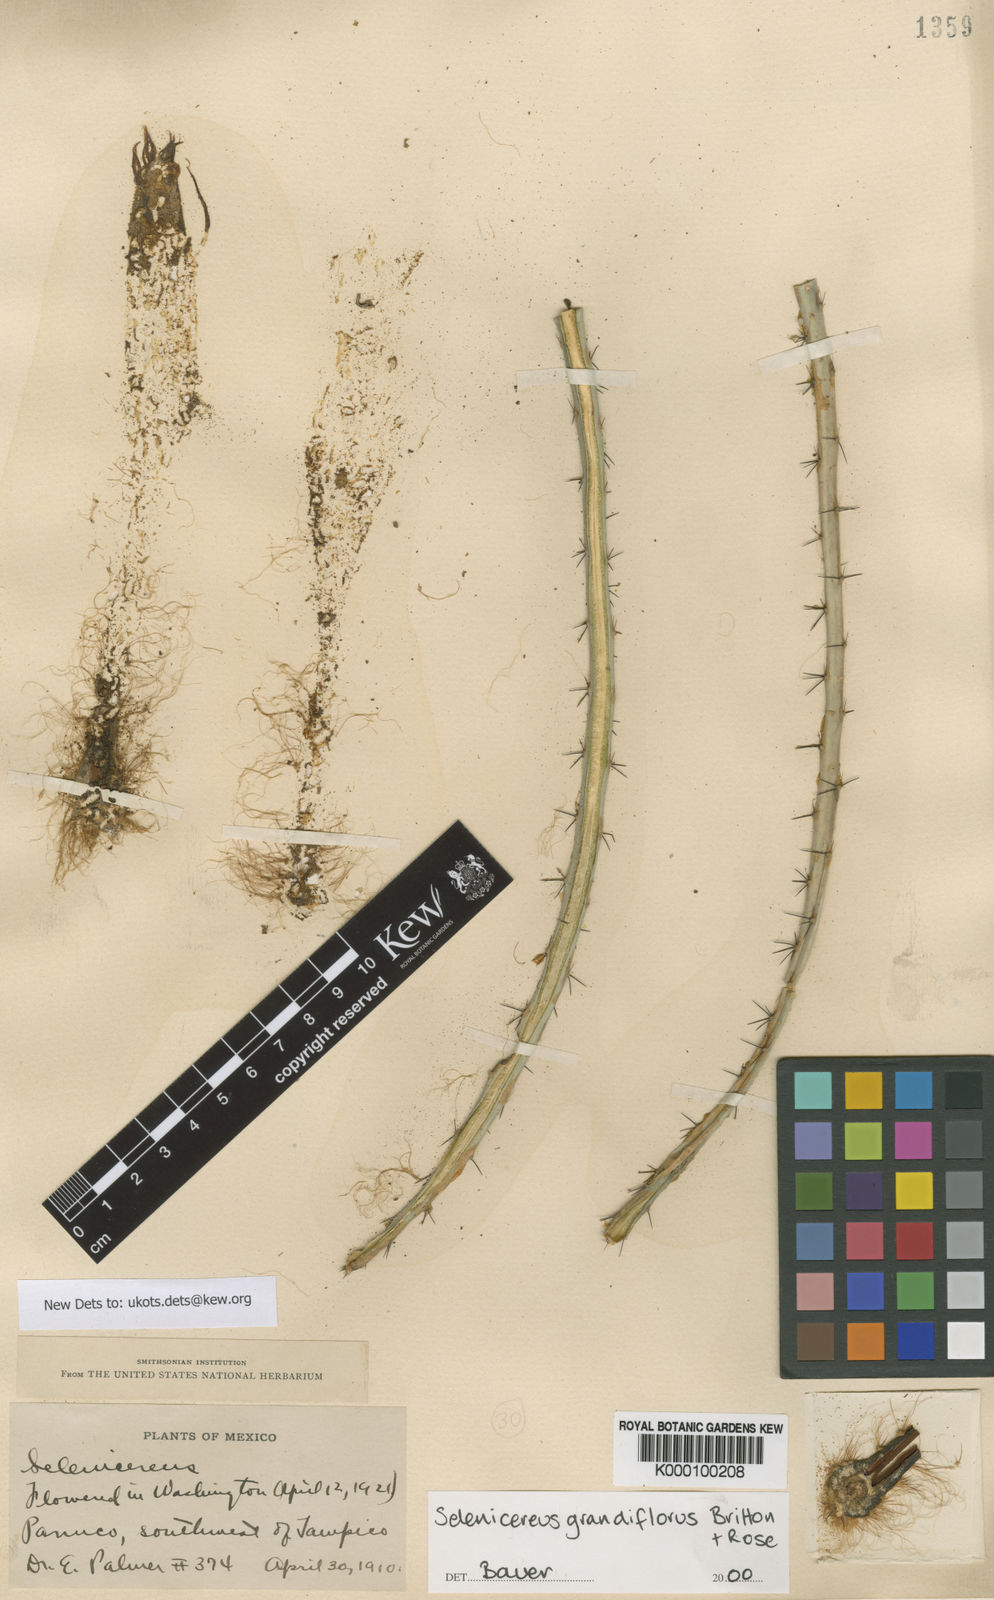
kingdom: Plantae
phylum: Tracheophyta
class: Magnoliopsida
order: Caryophyllales
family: Cactaceae
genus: Selenicereus
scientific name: Selenicereus grandiflorus
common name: Queen of the night
